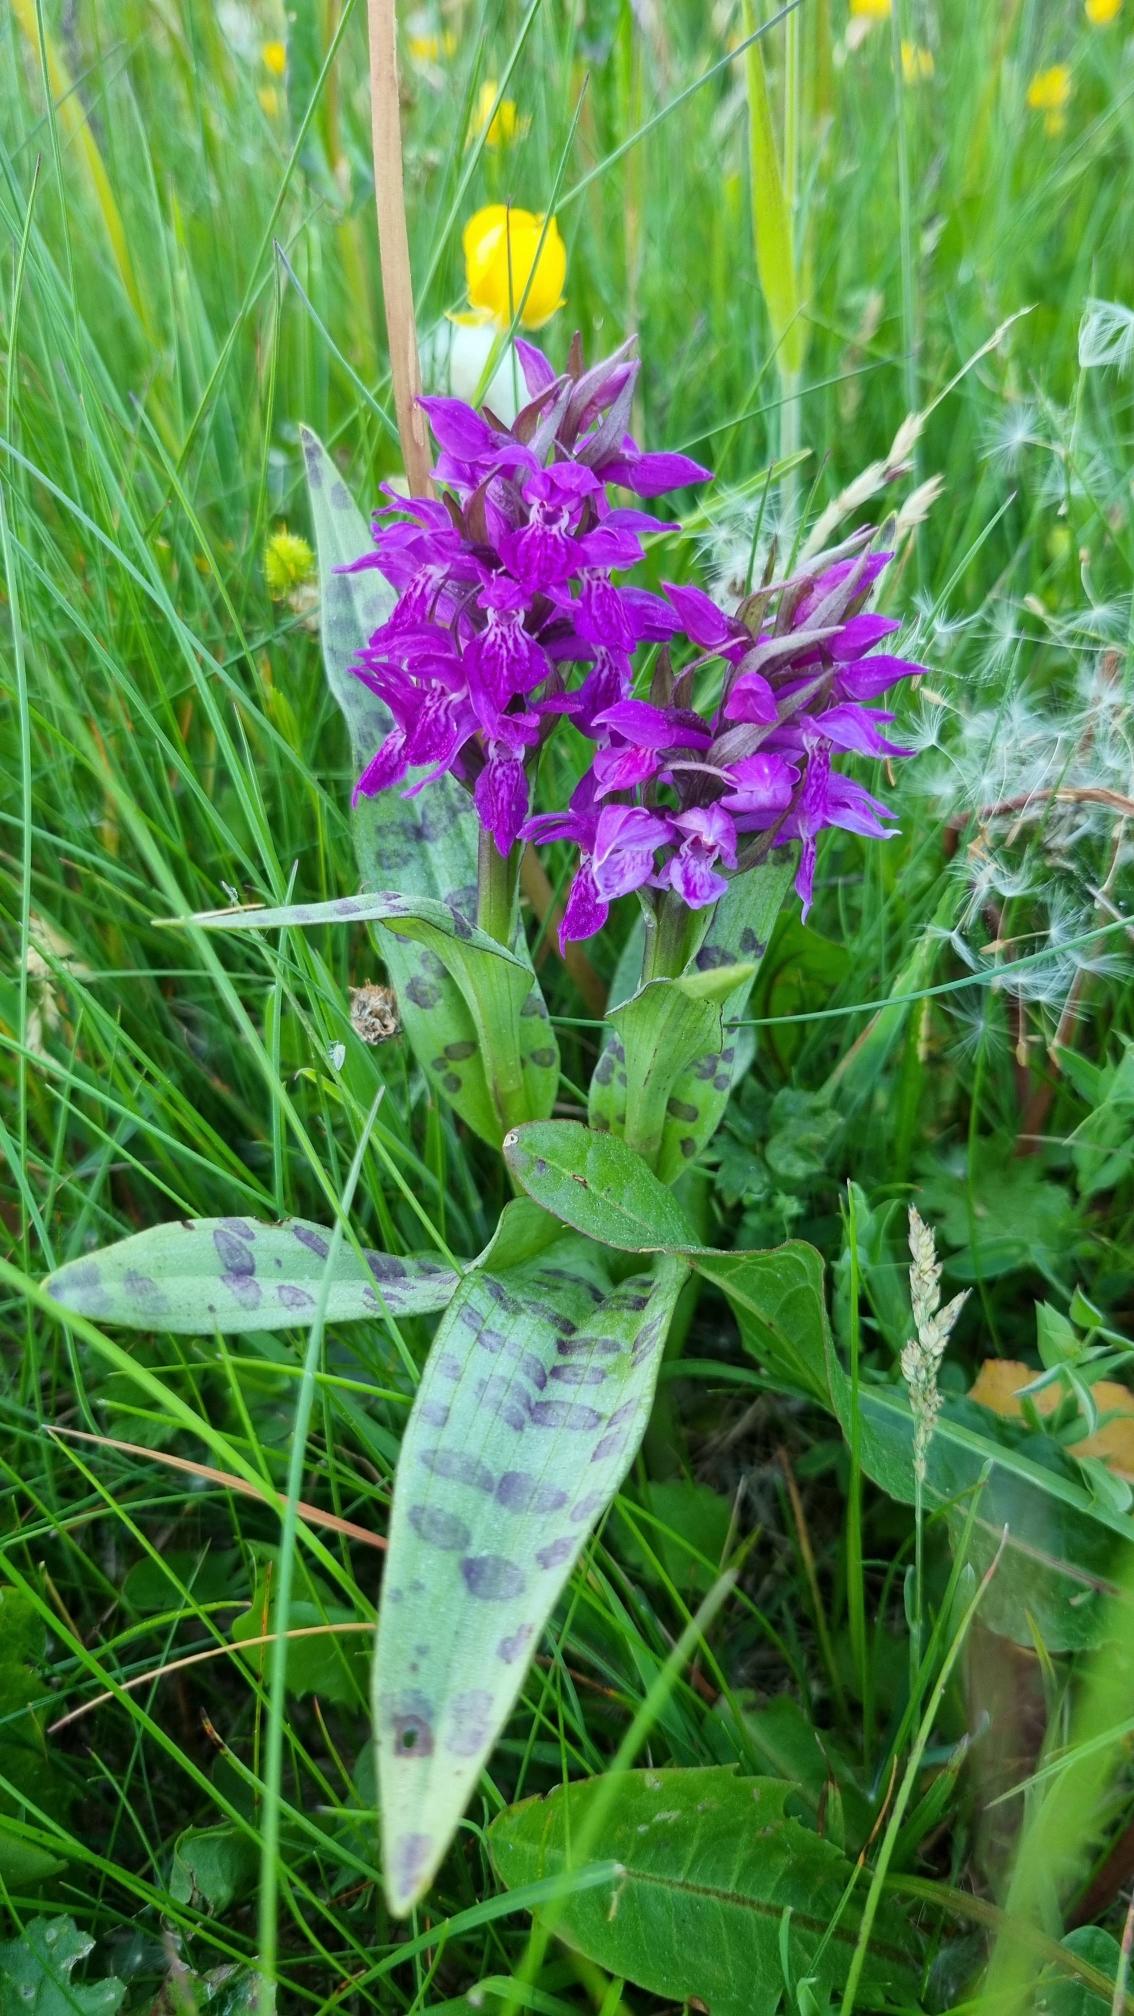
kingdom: Plantae
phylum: Tracheophyta
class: Liliopsida
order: Asparagales
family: Orchidaceae
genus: Dactylorhiza
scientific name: Dactylorhiza majalis
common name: Maj-gøgeurt
